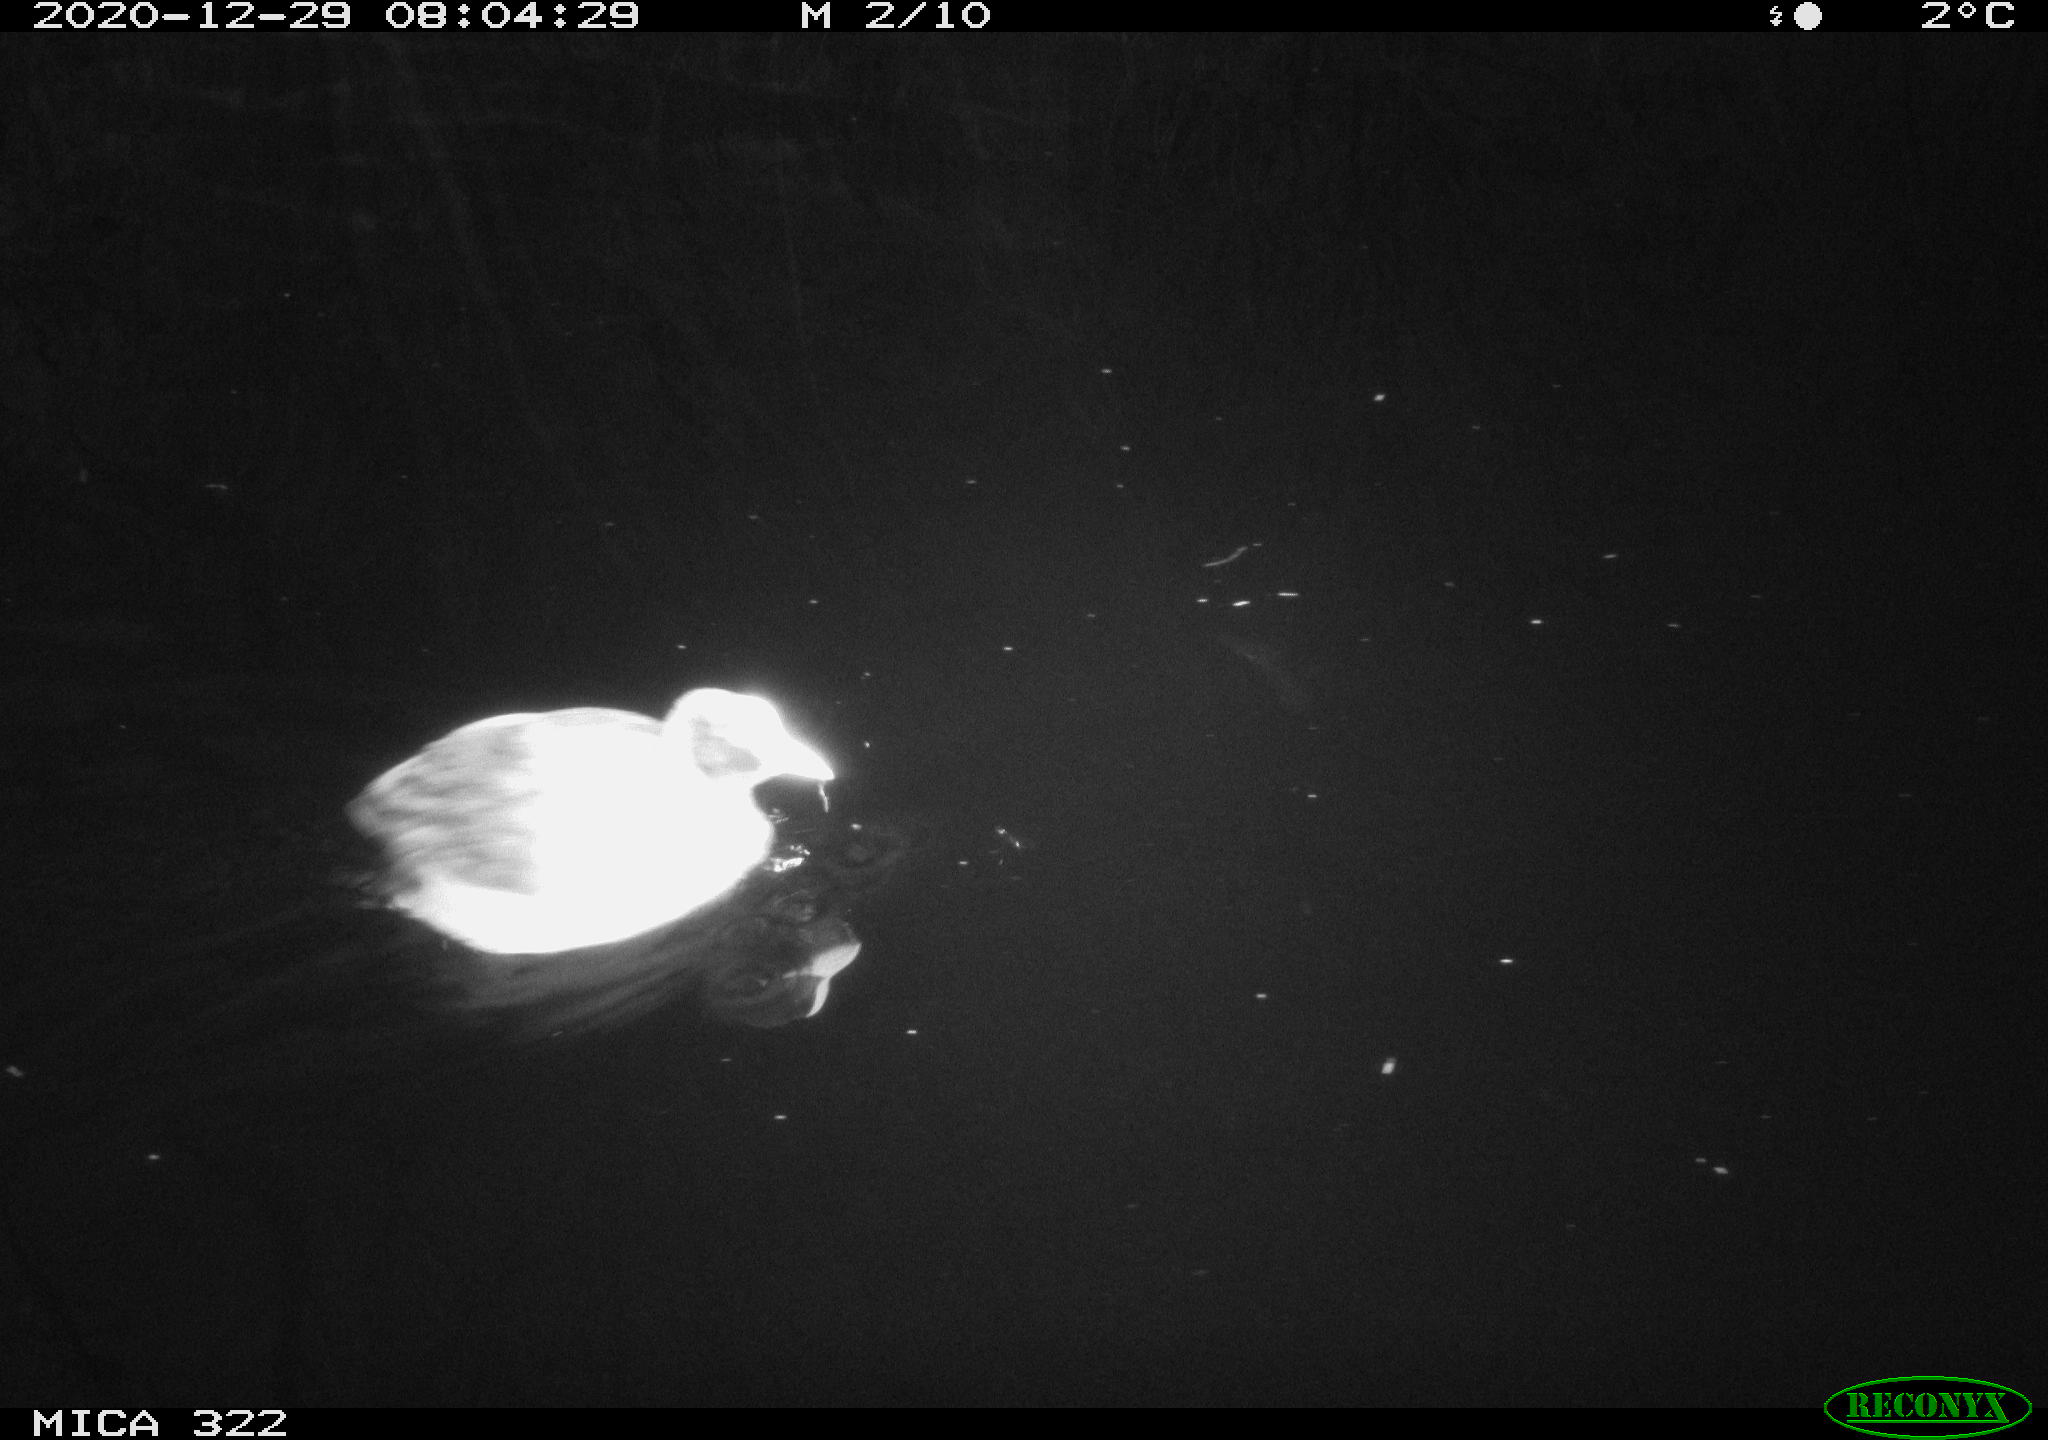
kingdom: Animalia
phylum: Chordata
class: Aves
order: Gruiformes
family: Rallidae
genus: Fulica
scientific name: Fulica atra
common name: Eurasian coot
